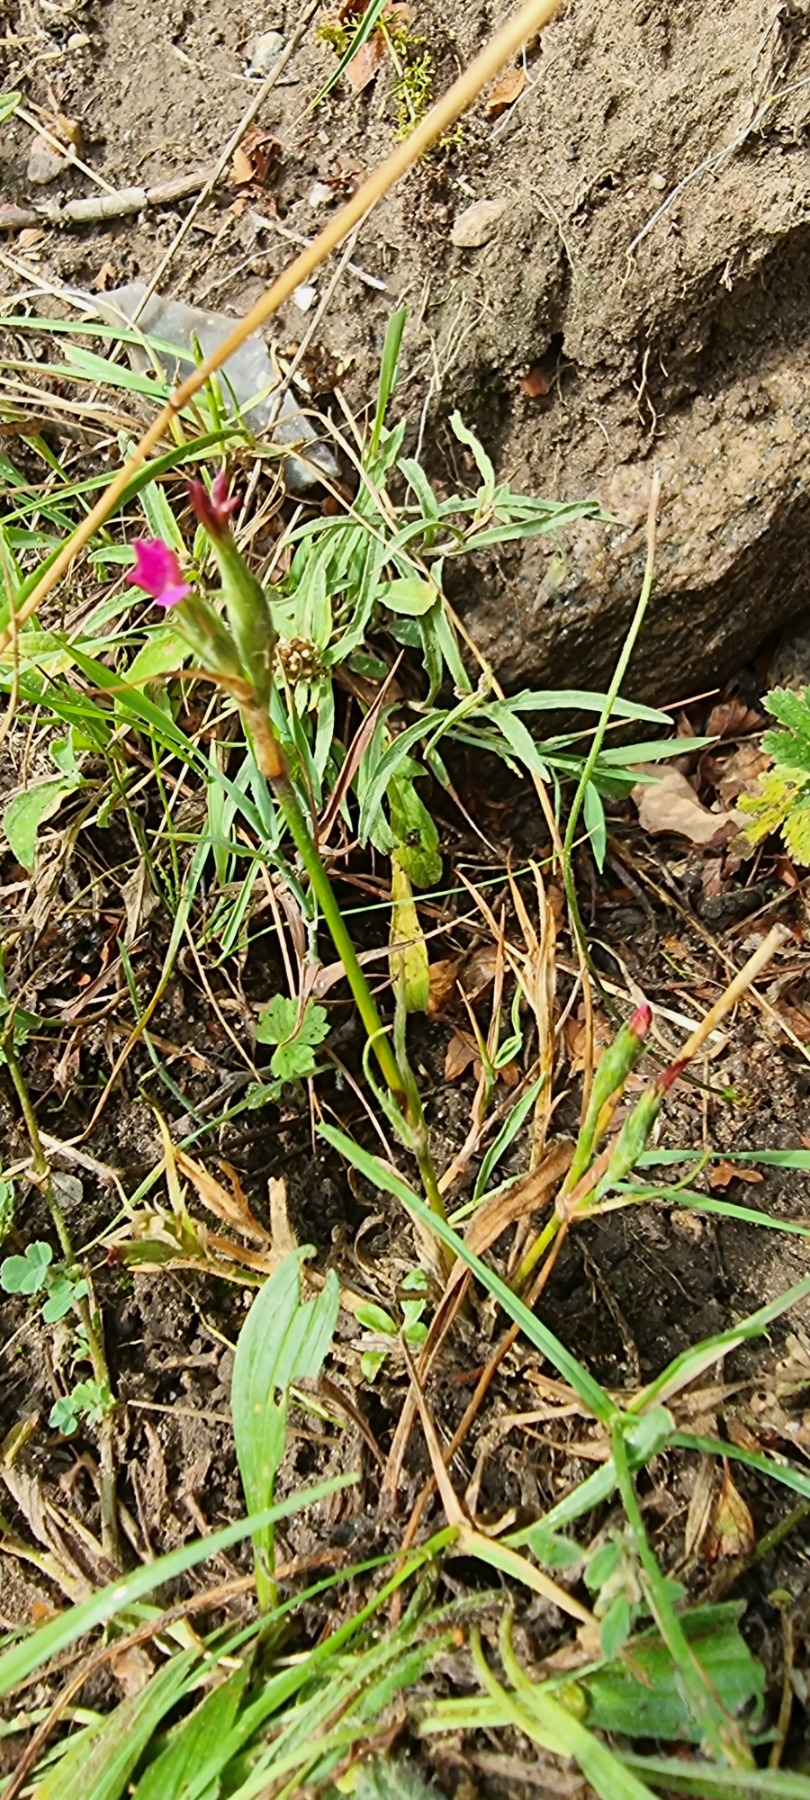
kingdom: Plantae
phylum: Tracheophyta
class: Magnoliopsida
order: Caryophyllales
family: Caryophyllaceae
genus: Dianthus
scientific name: Dianthus armeria
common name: Kost-nellike
